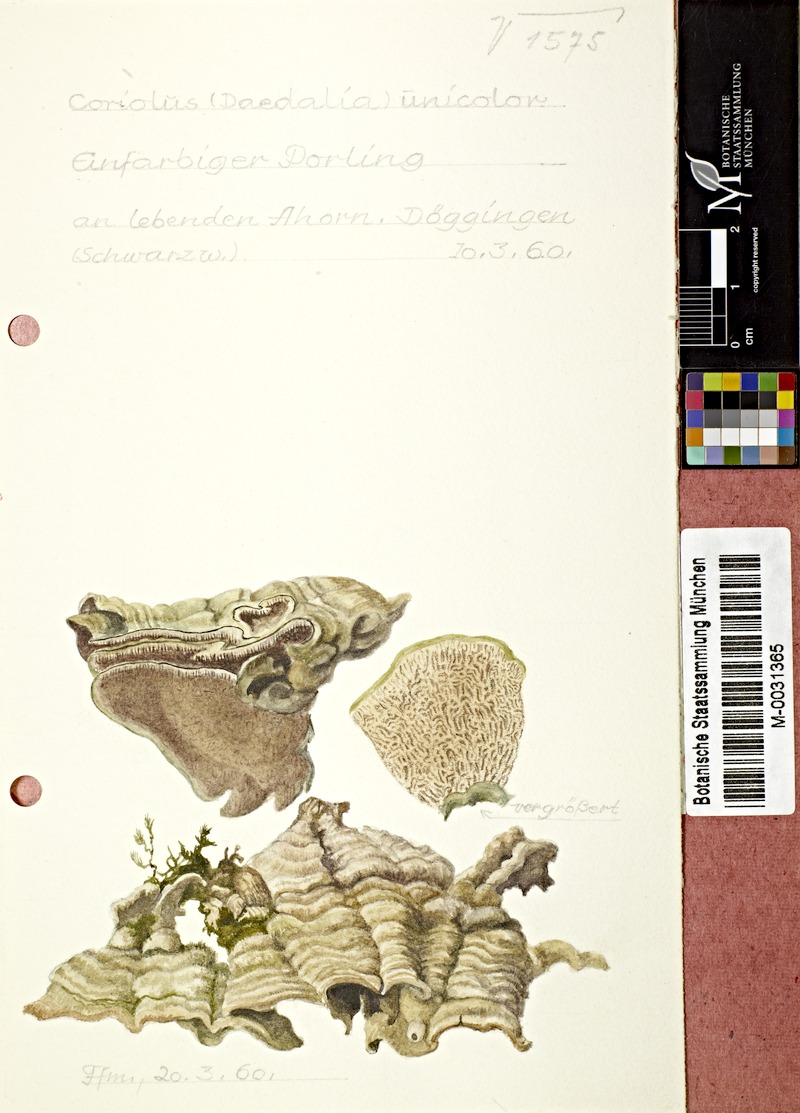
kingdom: Fungi
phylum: Basidiomycota
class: Agaricomycetes
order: Polyporales
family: Cerrenaceae
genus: Cerrena
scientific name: Cerrena unicolor
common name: Mossy maze polypore
